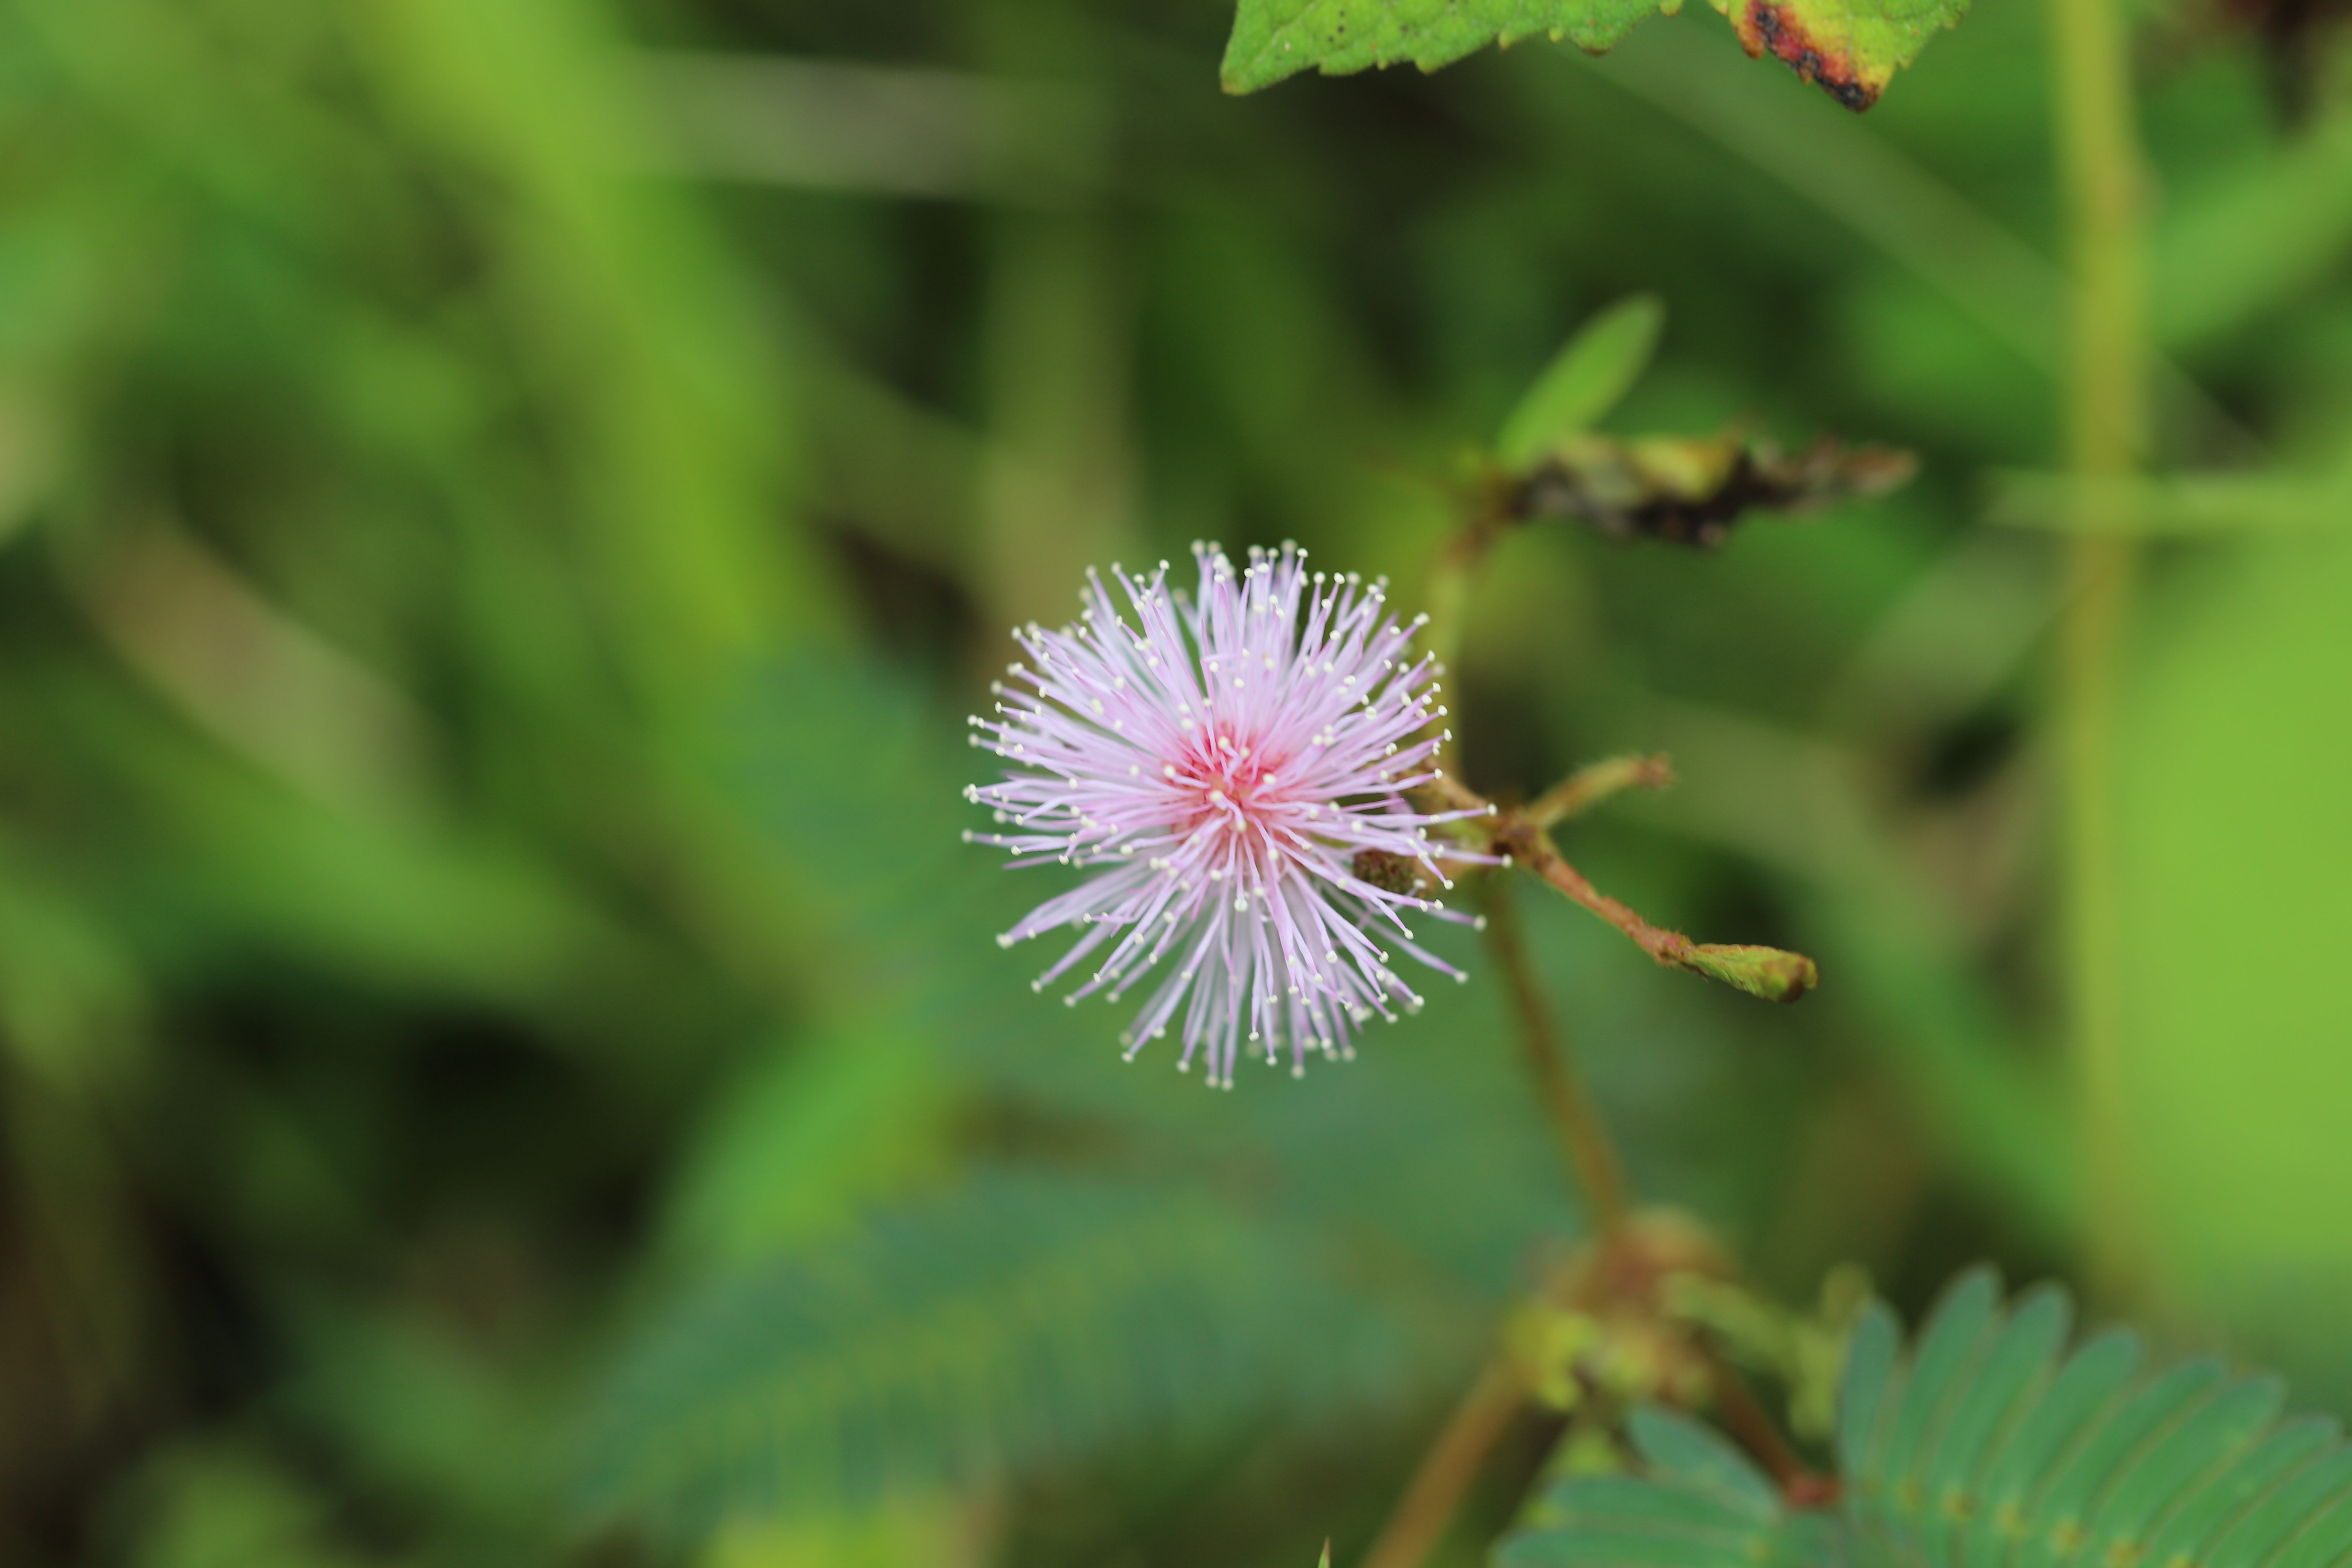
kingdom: Plantae
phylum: Tracheophyta
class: Magnoliopsida
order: Fabales
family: Fabaceae
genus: Mimosa
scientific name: Mimosa pudica
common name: Sensitive plant
